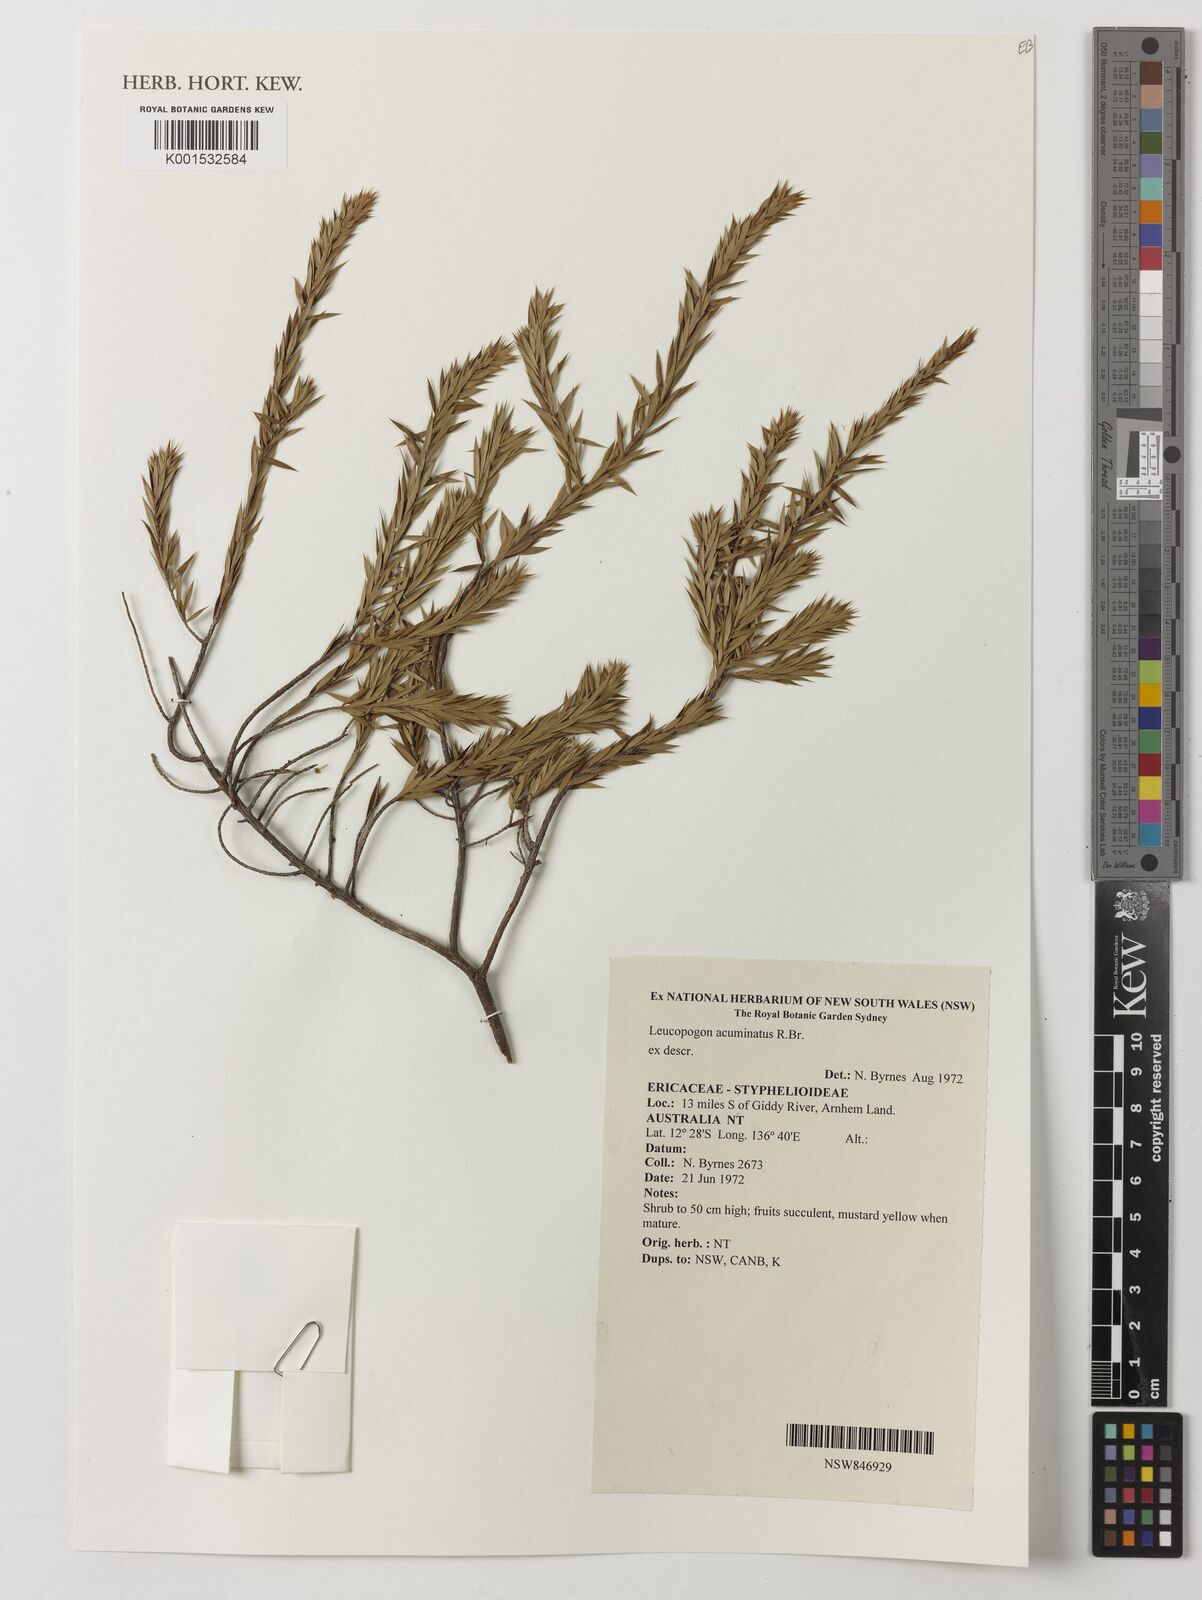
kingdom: Plantae
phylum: Tracheophyta
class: Magnoliopsida
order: Ericales
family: Ericaceae
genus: Styphelia
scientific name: Styphelia acuminata
